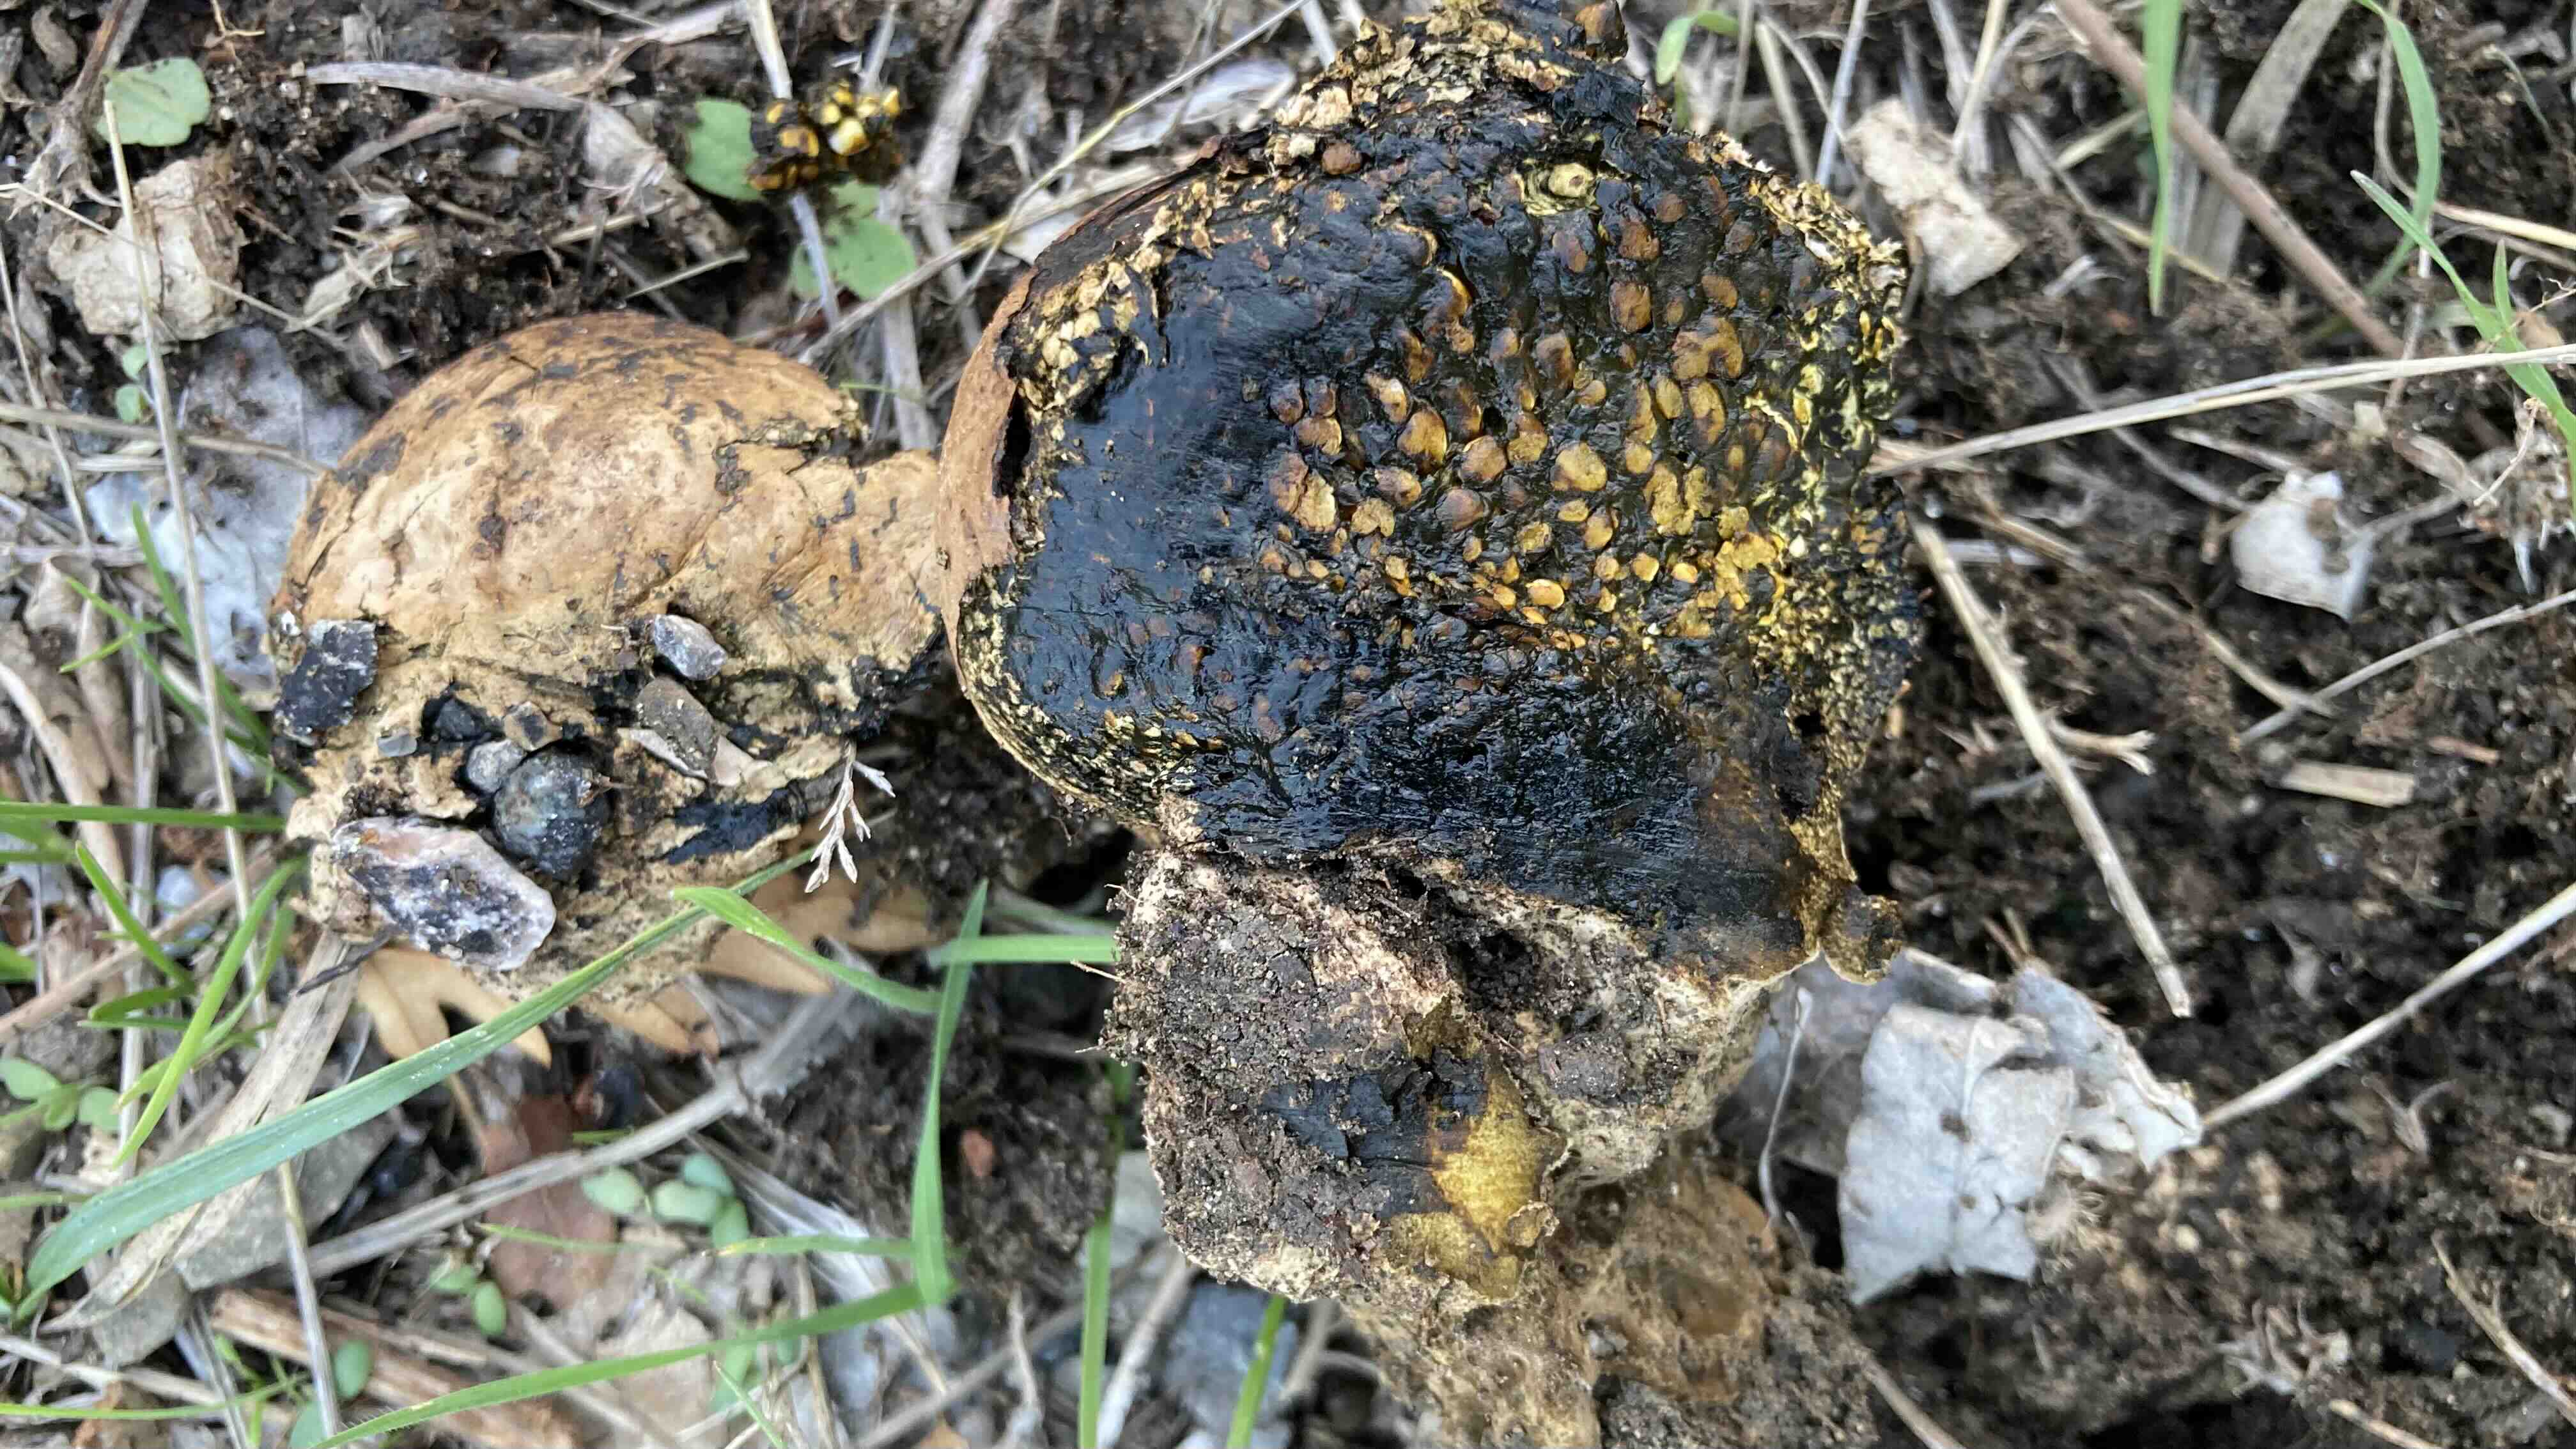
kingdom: Fungi
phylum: Basidiomycota
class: Agaricomycetes
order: Boletales
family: Sclerodermataceae
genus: Pisolithus
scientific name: Pisolithus
